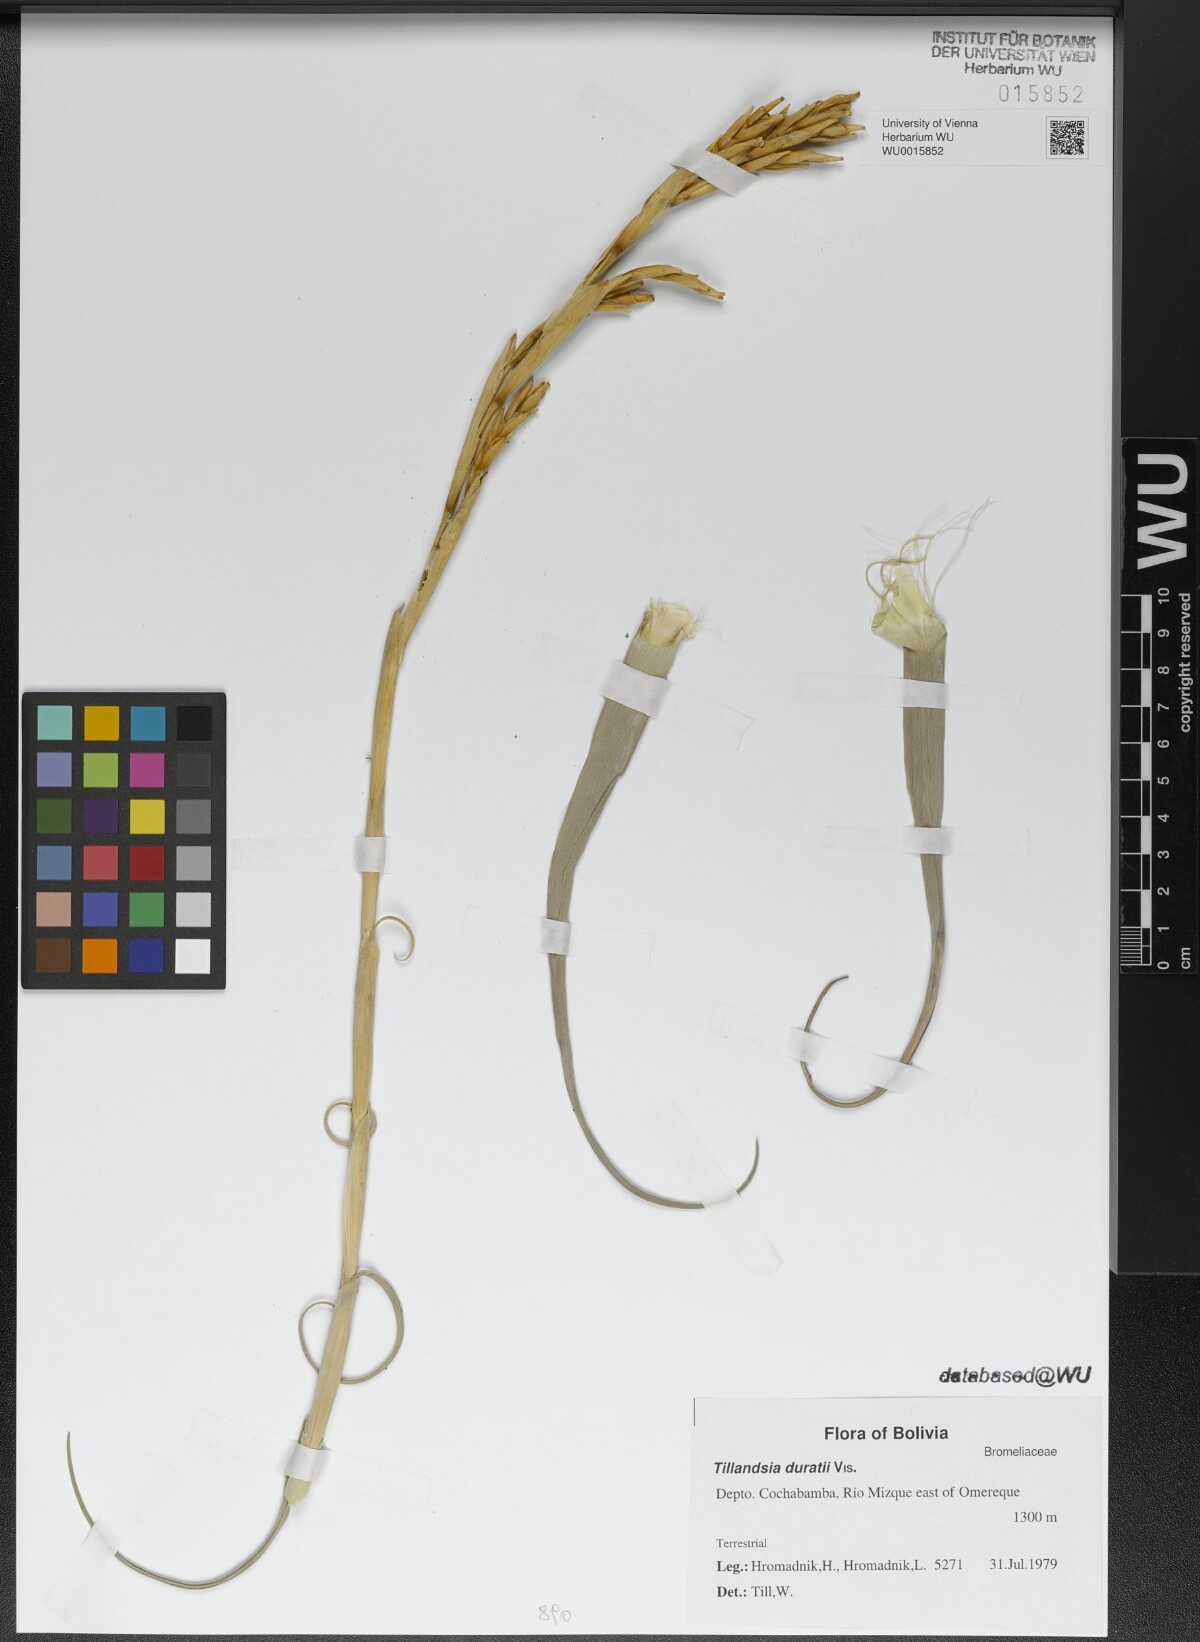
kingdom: Plantae
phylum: Tracheophyta
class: Liliopsida
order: Poales
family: Bromeliaceae
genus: Tillandsia
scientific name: Tillandsia duratii
